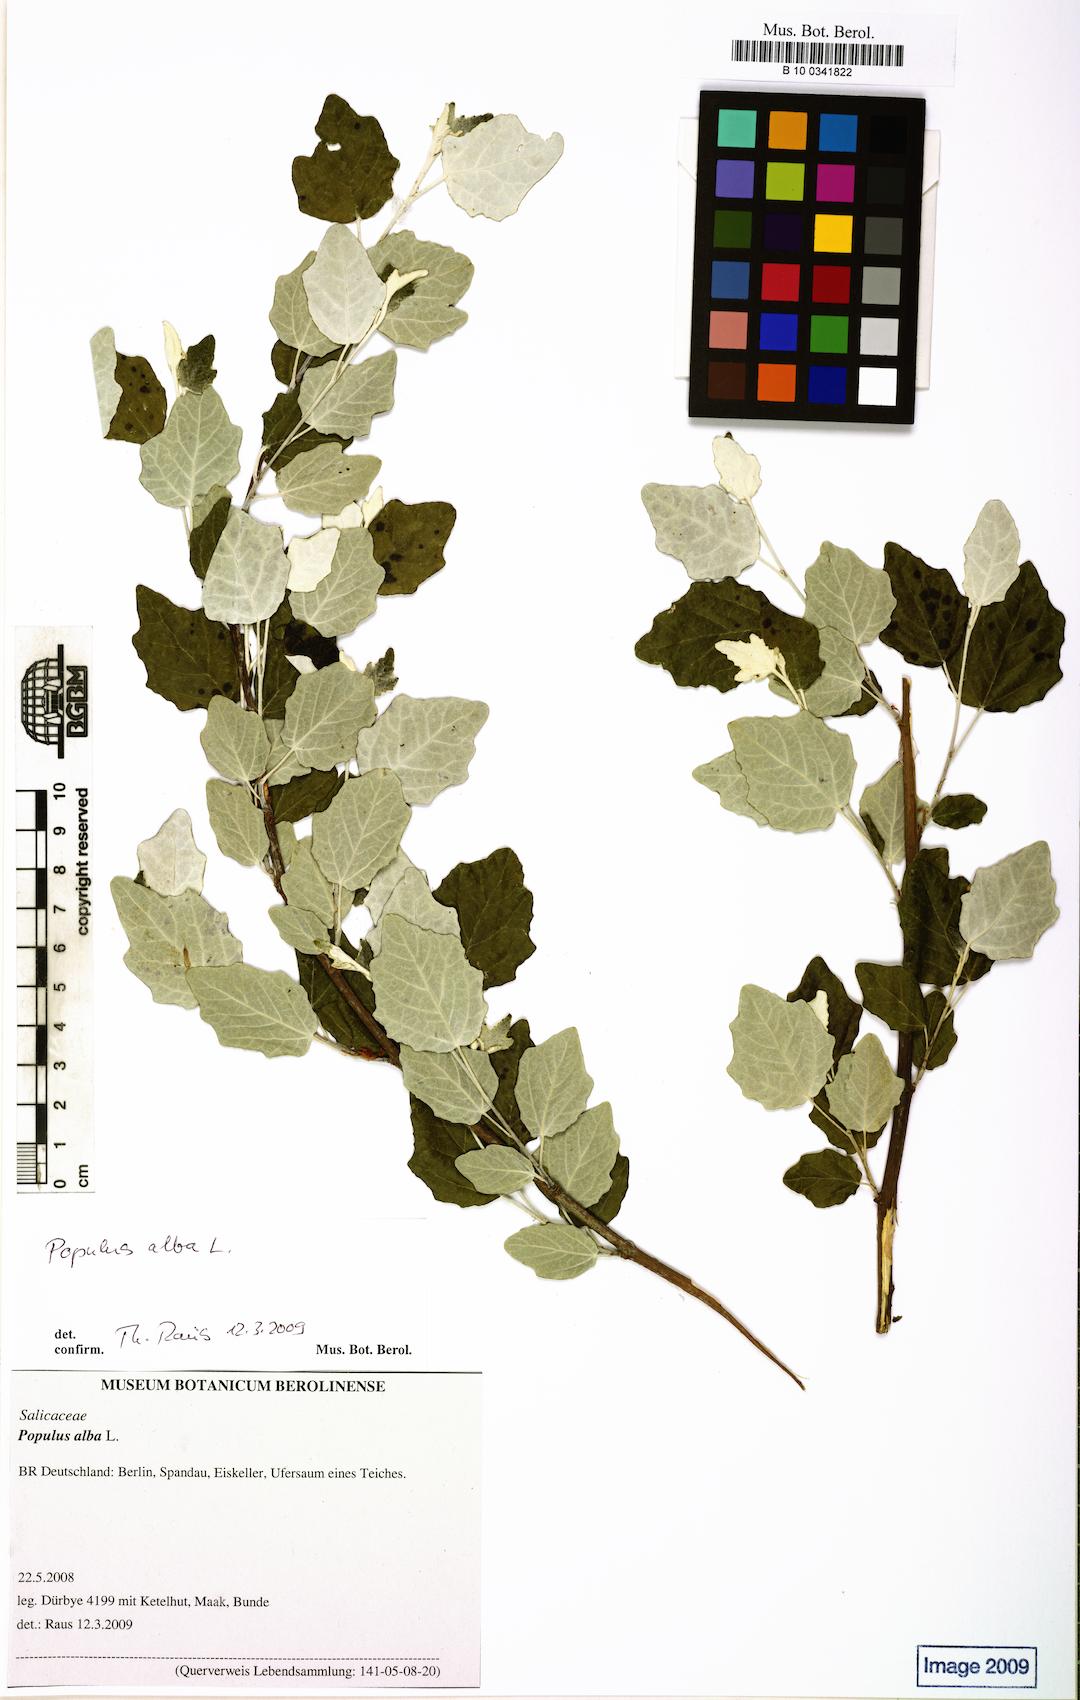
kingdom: Plantae
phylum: Tracheophyta
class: Magnoliopsida
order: Malpighiales
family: Salicaceae
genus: Populus
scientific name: Populus alba
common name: White poplar
